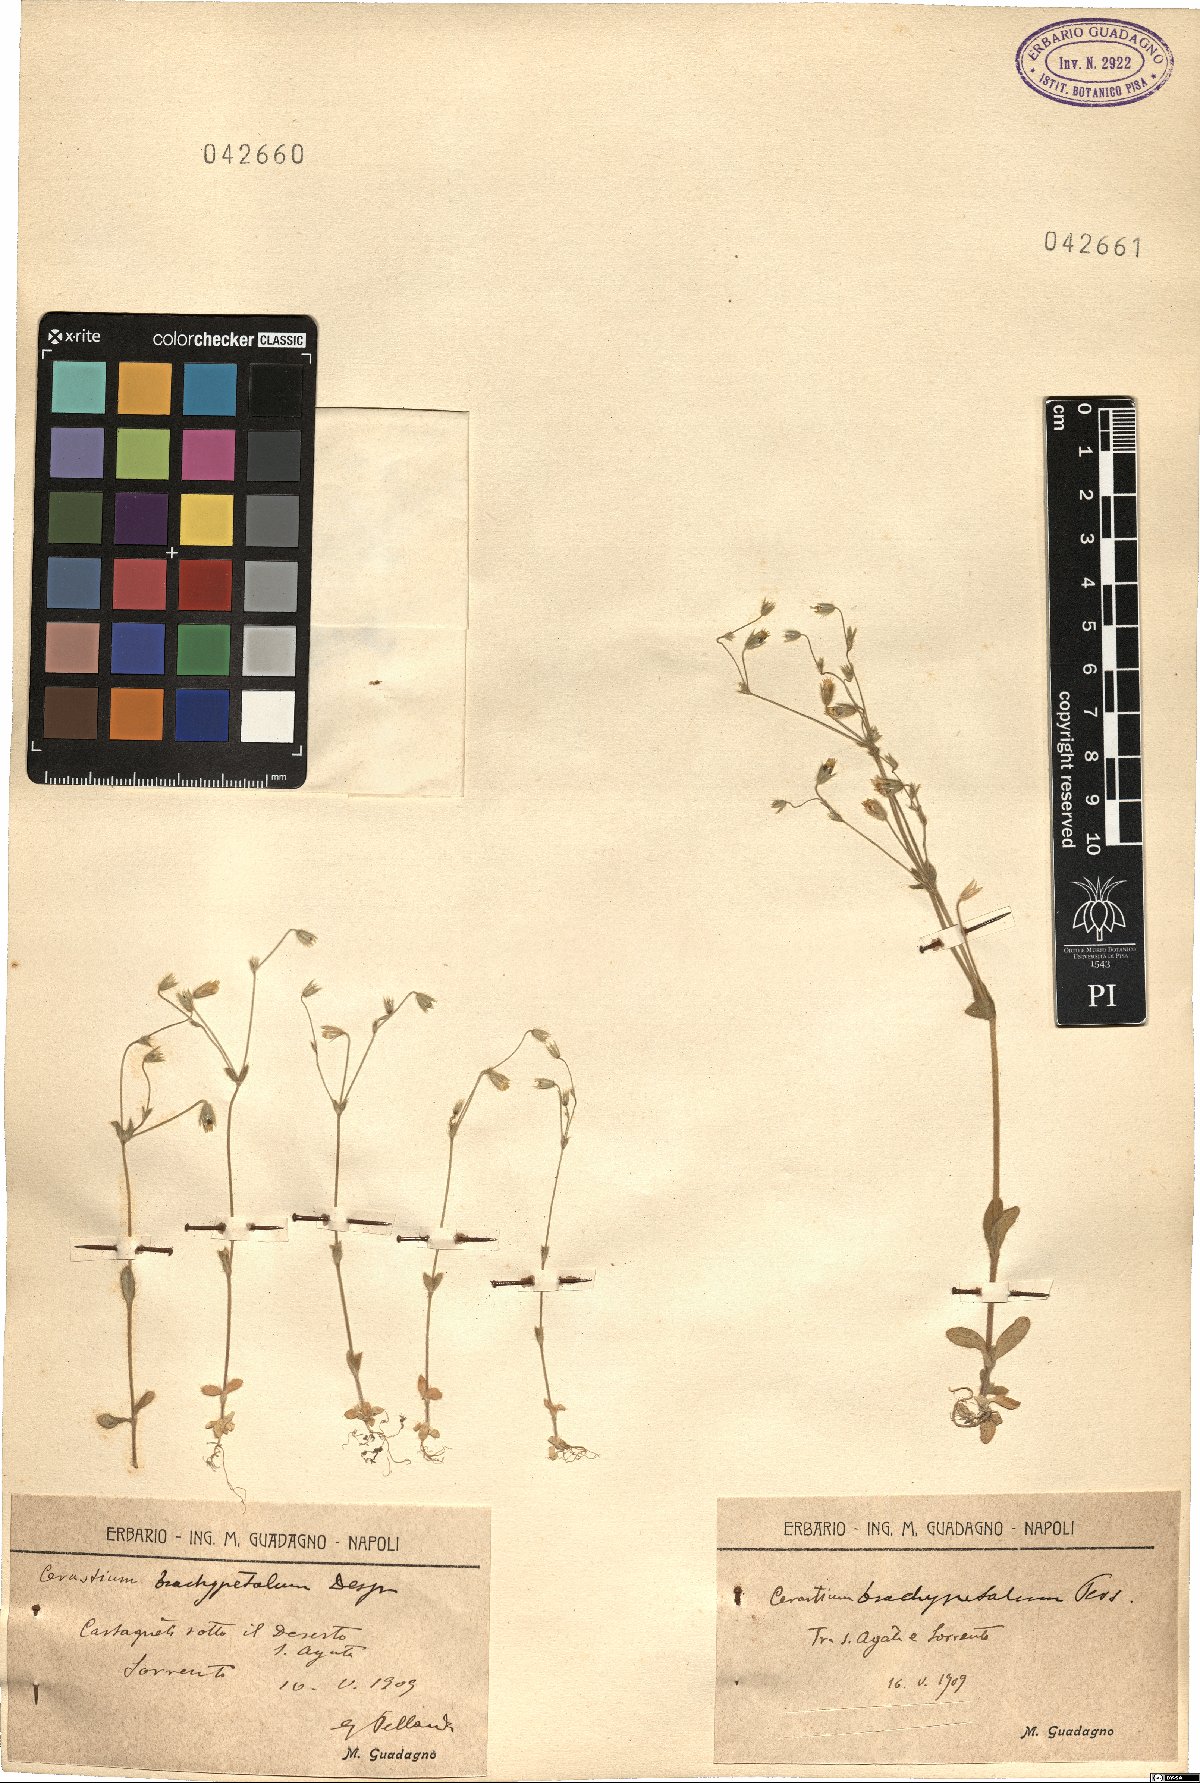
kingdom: Plantae
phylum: Tracheophyta
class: Magnoliopsida
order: Caryophyllales
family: Caryophyllaceae
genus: Cerastium
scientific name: Cerastium brachypetalum
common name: Grey mouse-ear
